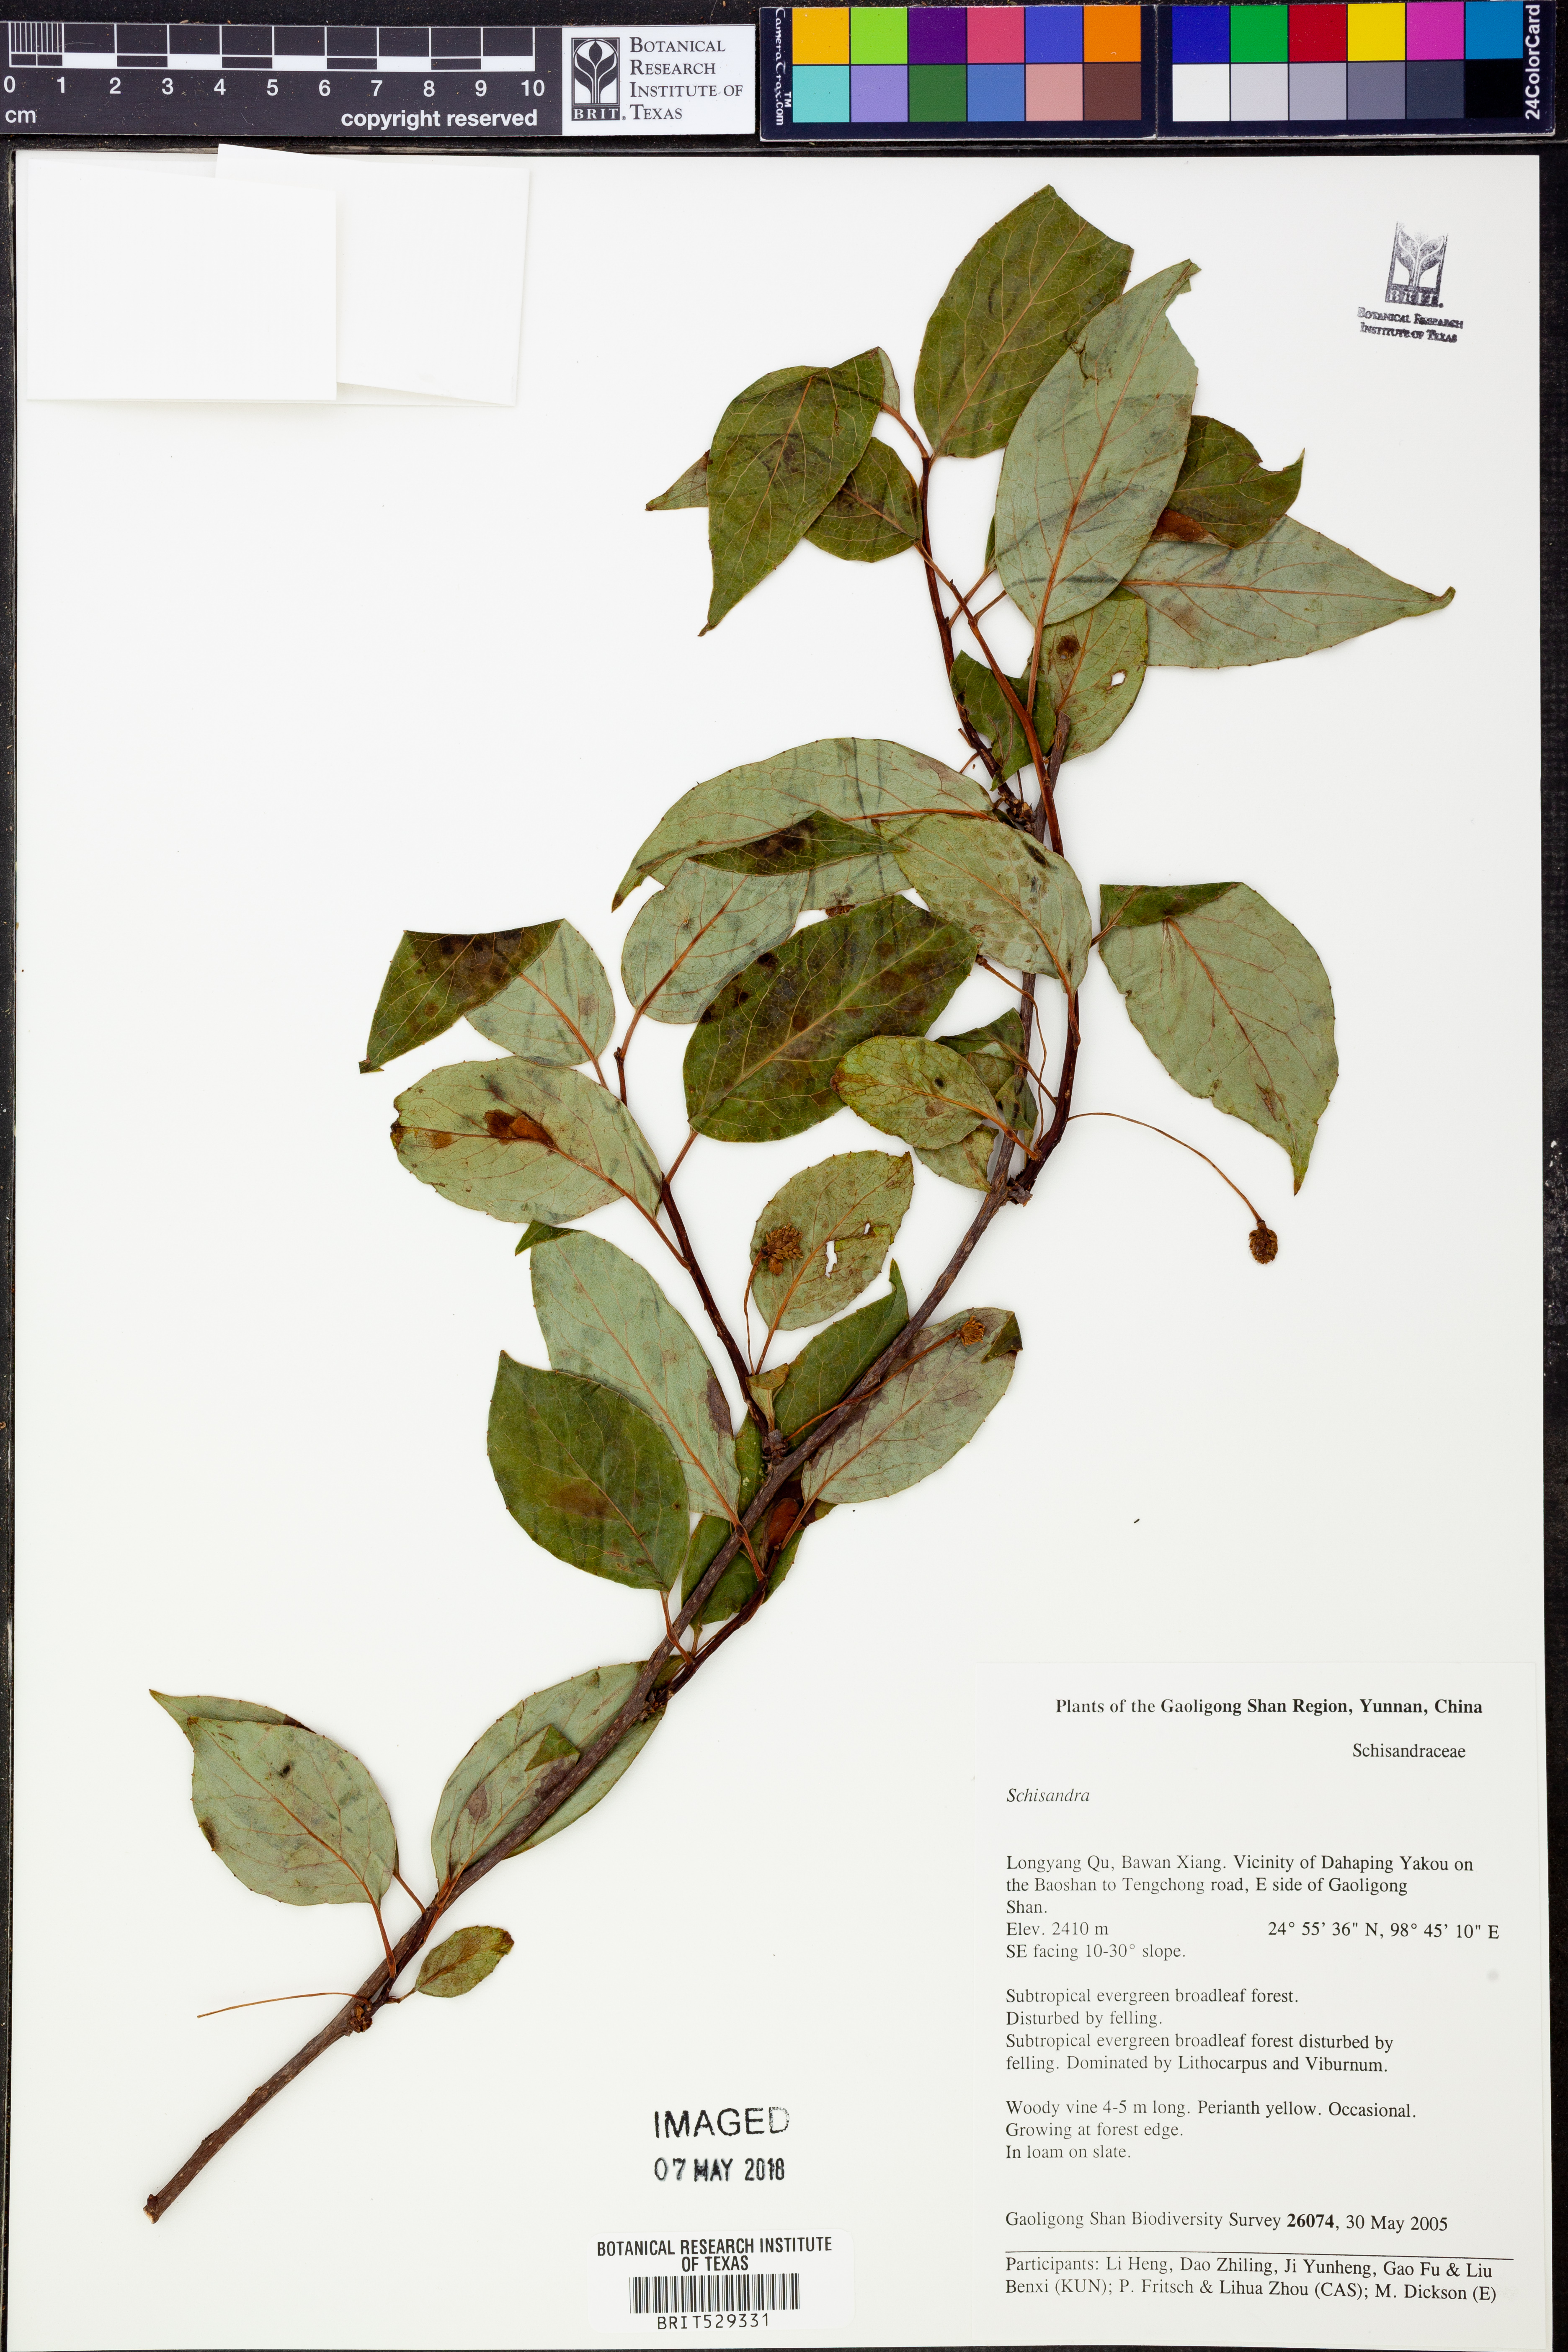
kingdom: Plantae
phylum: Tracheophyta
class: Magnoliopsida
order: Austrobaileyales
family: Schisandraceae
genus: Schisandra
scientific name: Schisandra
